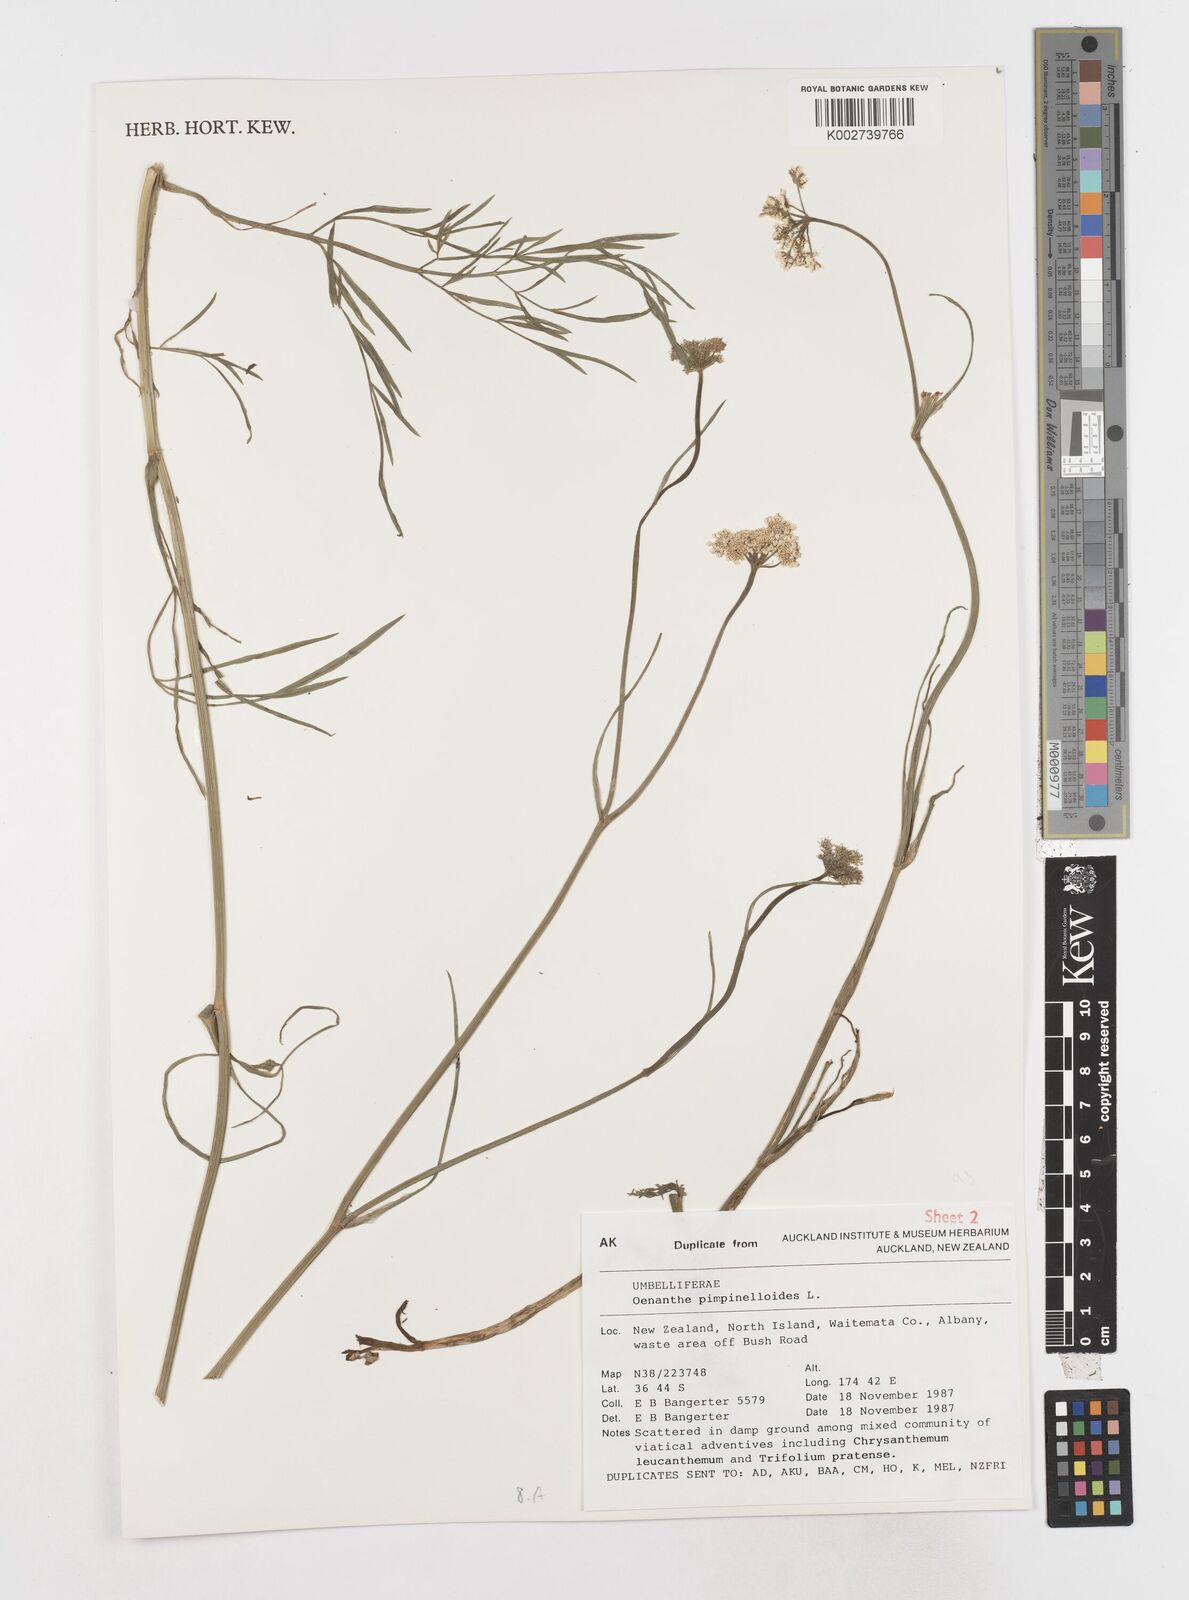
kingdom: Plantae
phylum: Tracheophyta
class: Magnoliopsida
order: Apiales
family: Apiaceae
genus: Oenanthe
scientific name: Oenanthe pimpinelloides
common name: Corky-fruited water-dropwort
